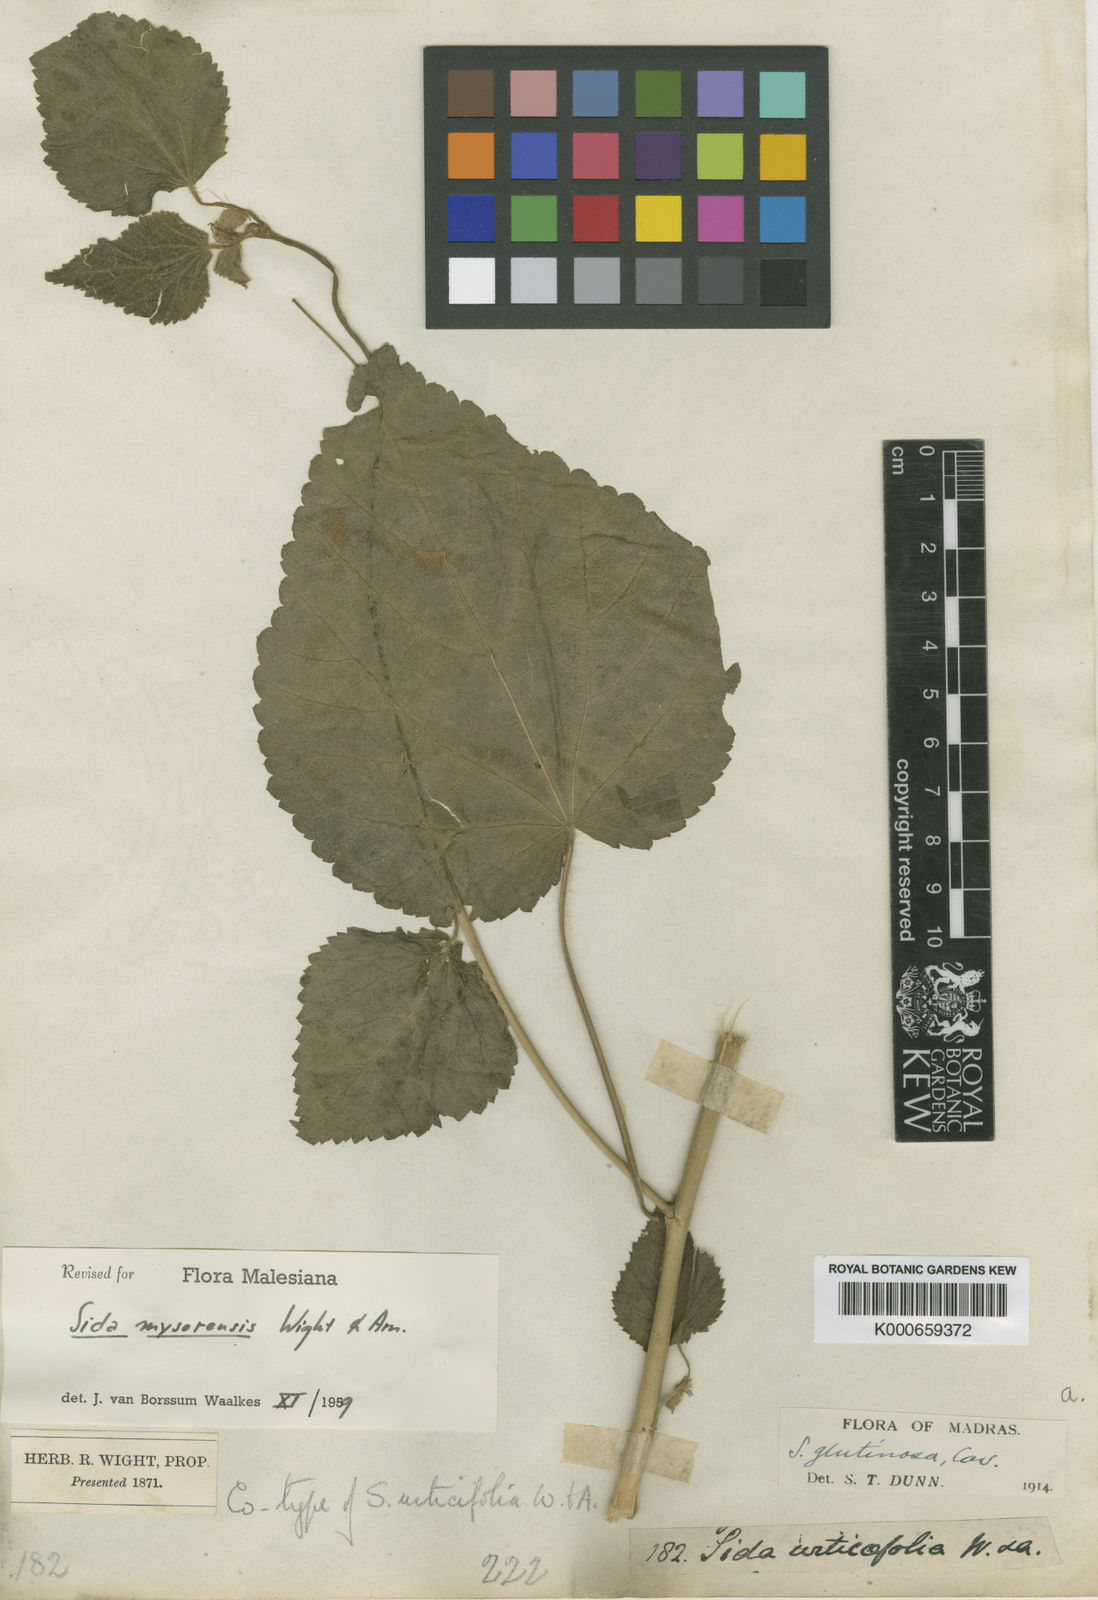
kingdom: Plantae
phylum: Tracheophyta
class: Magnoliopsida
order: Malvales
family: Malvaceae
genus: Sida
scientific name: Sida mysorensis
